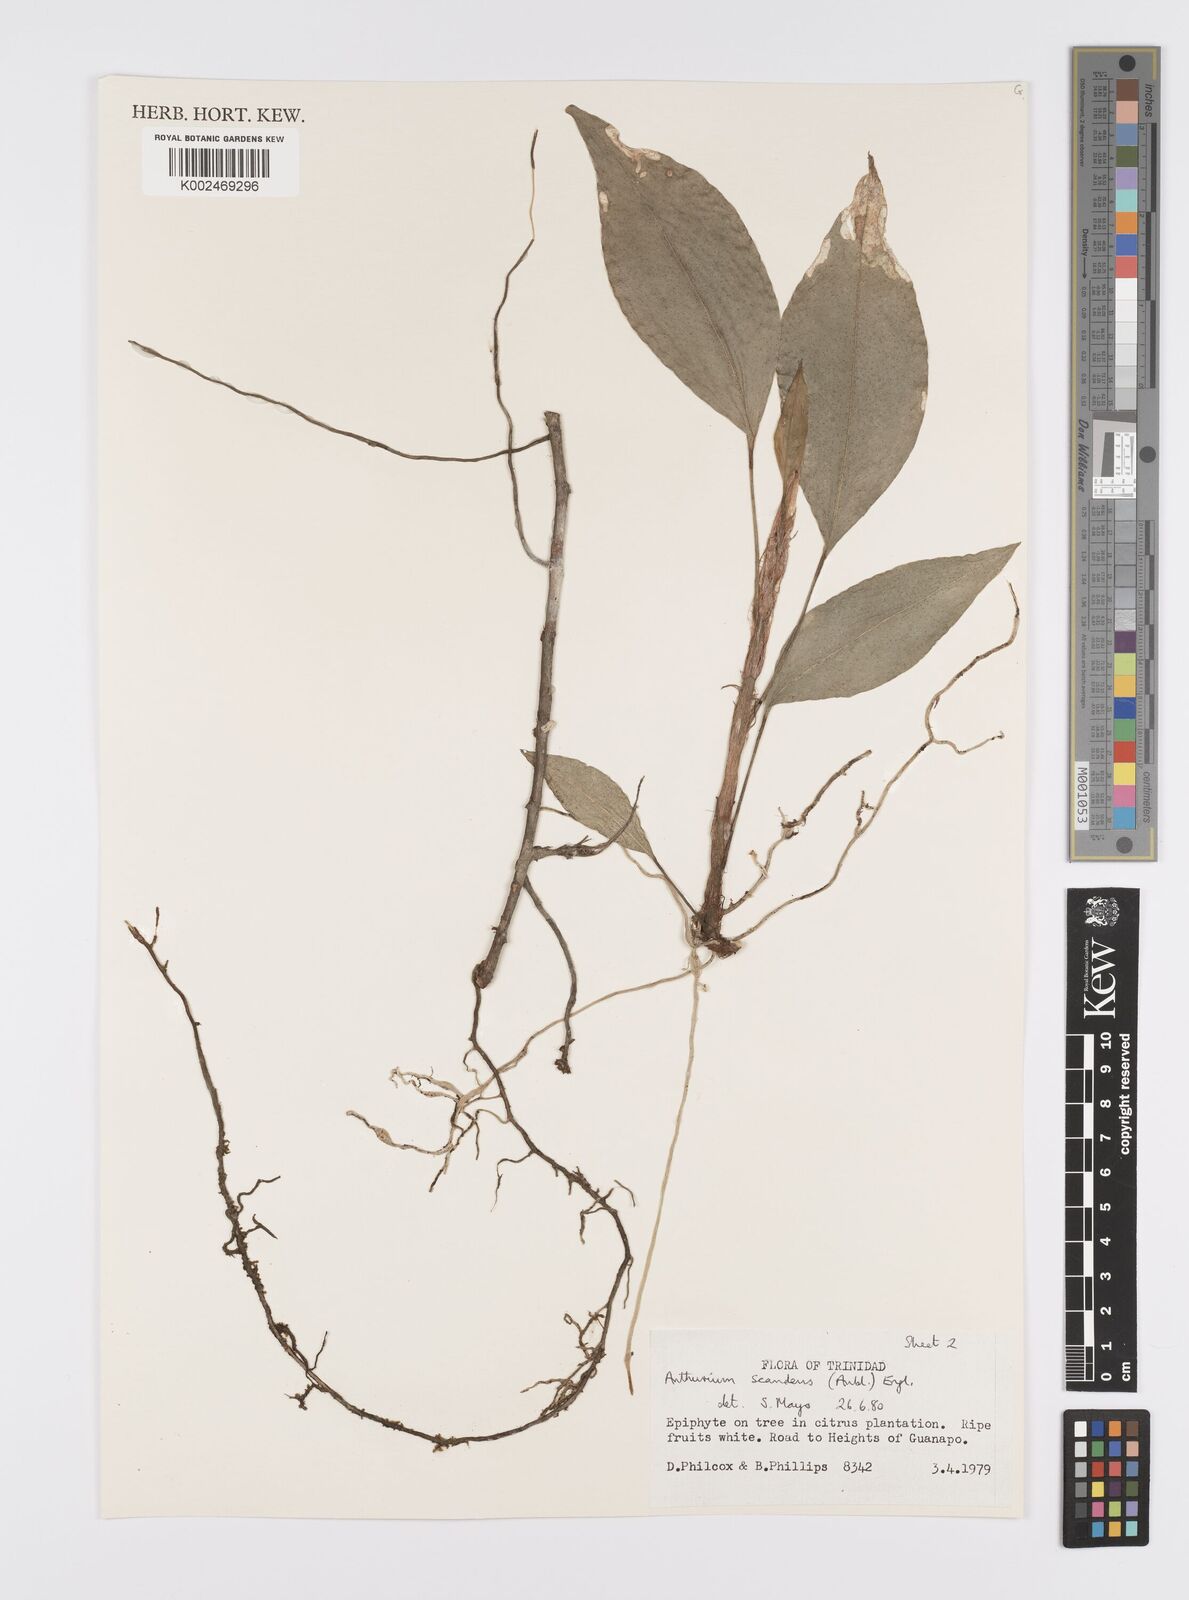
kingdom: Plantae
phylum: Tracheophyta
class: Liliopsida
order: Alismatales
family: Araceae
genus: Anthurium
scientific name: Anthurium scandens
